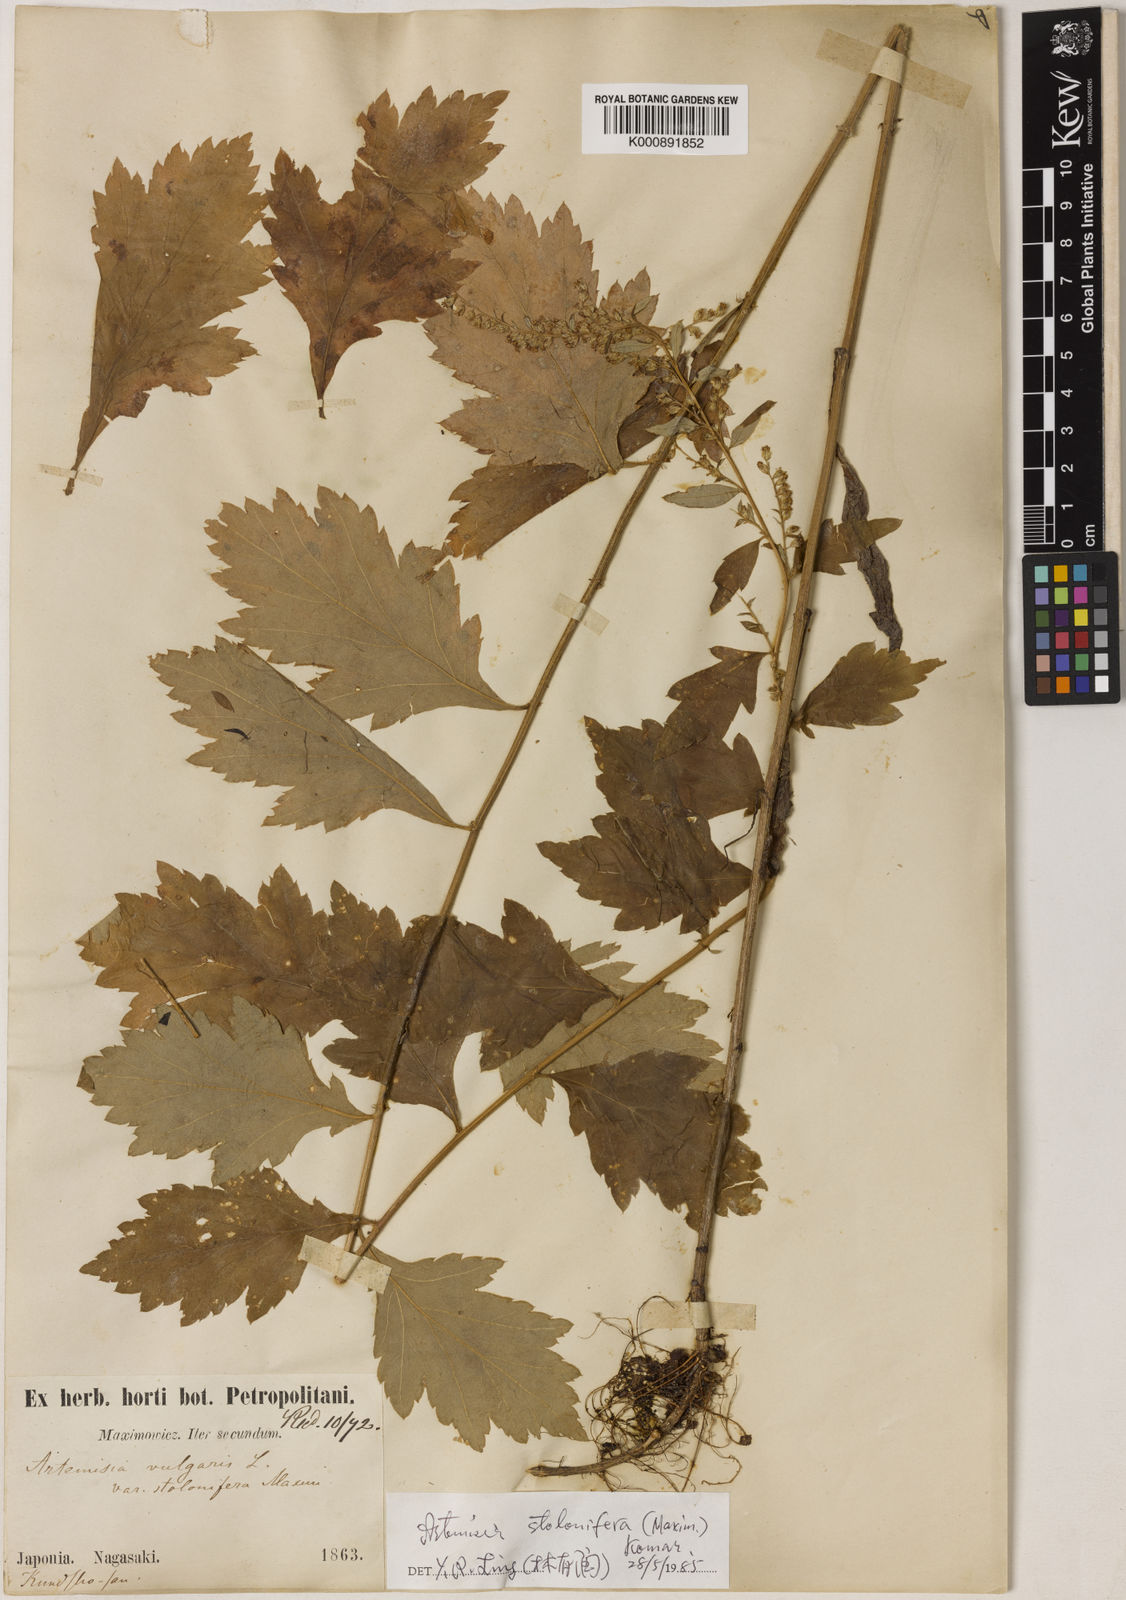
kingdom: Plantae
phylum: Tracheophyta
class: Magnoliopsida
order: Asterales
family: Asteraceae
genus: Artemisia
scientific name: Artemisia stolonifera
